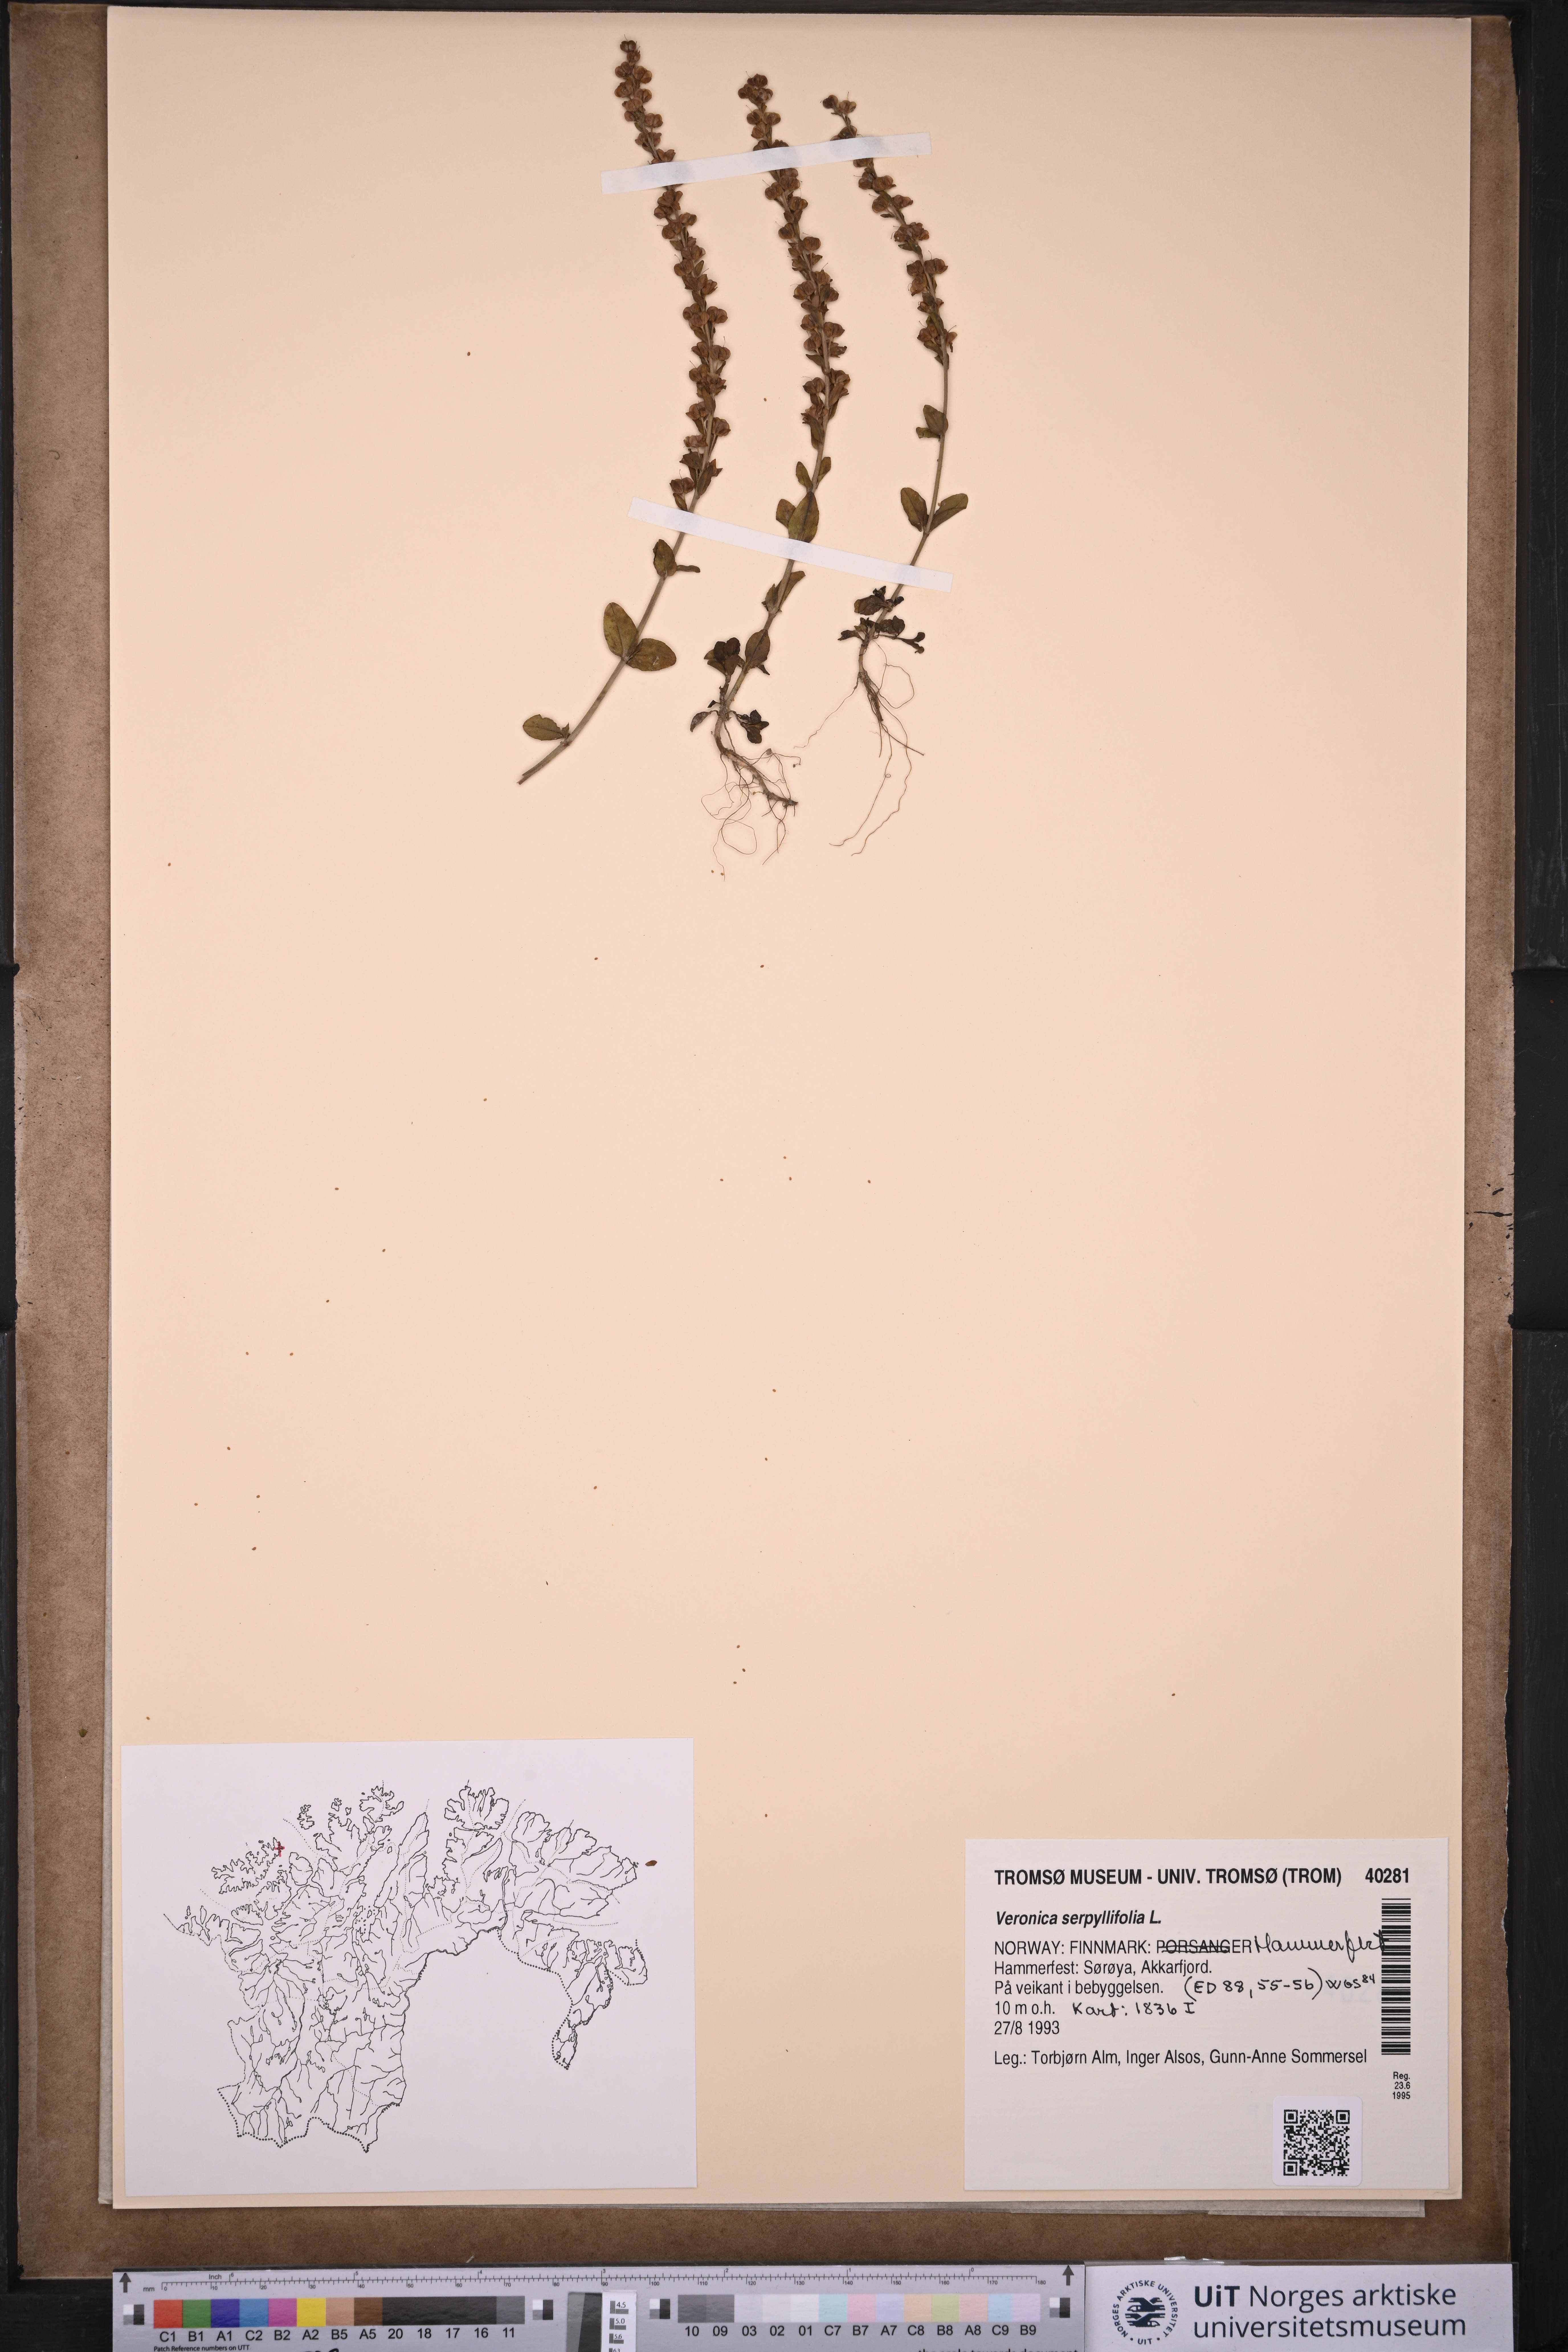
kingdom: Plantae
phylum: Tracheophyta
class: Magnoliopsida
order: Lamiales
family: Plantaginaceae
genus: Veronica
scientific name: Veronica serpyllifolia
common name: Thyme-leaved speedwell
